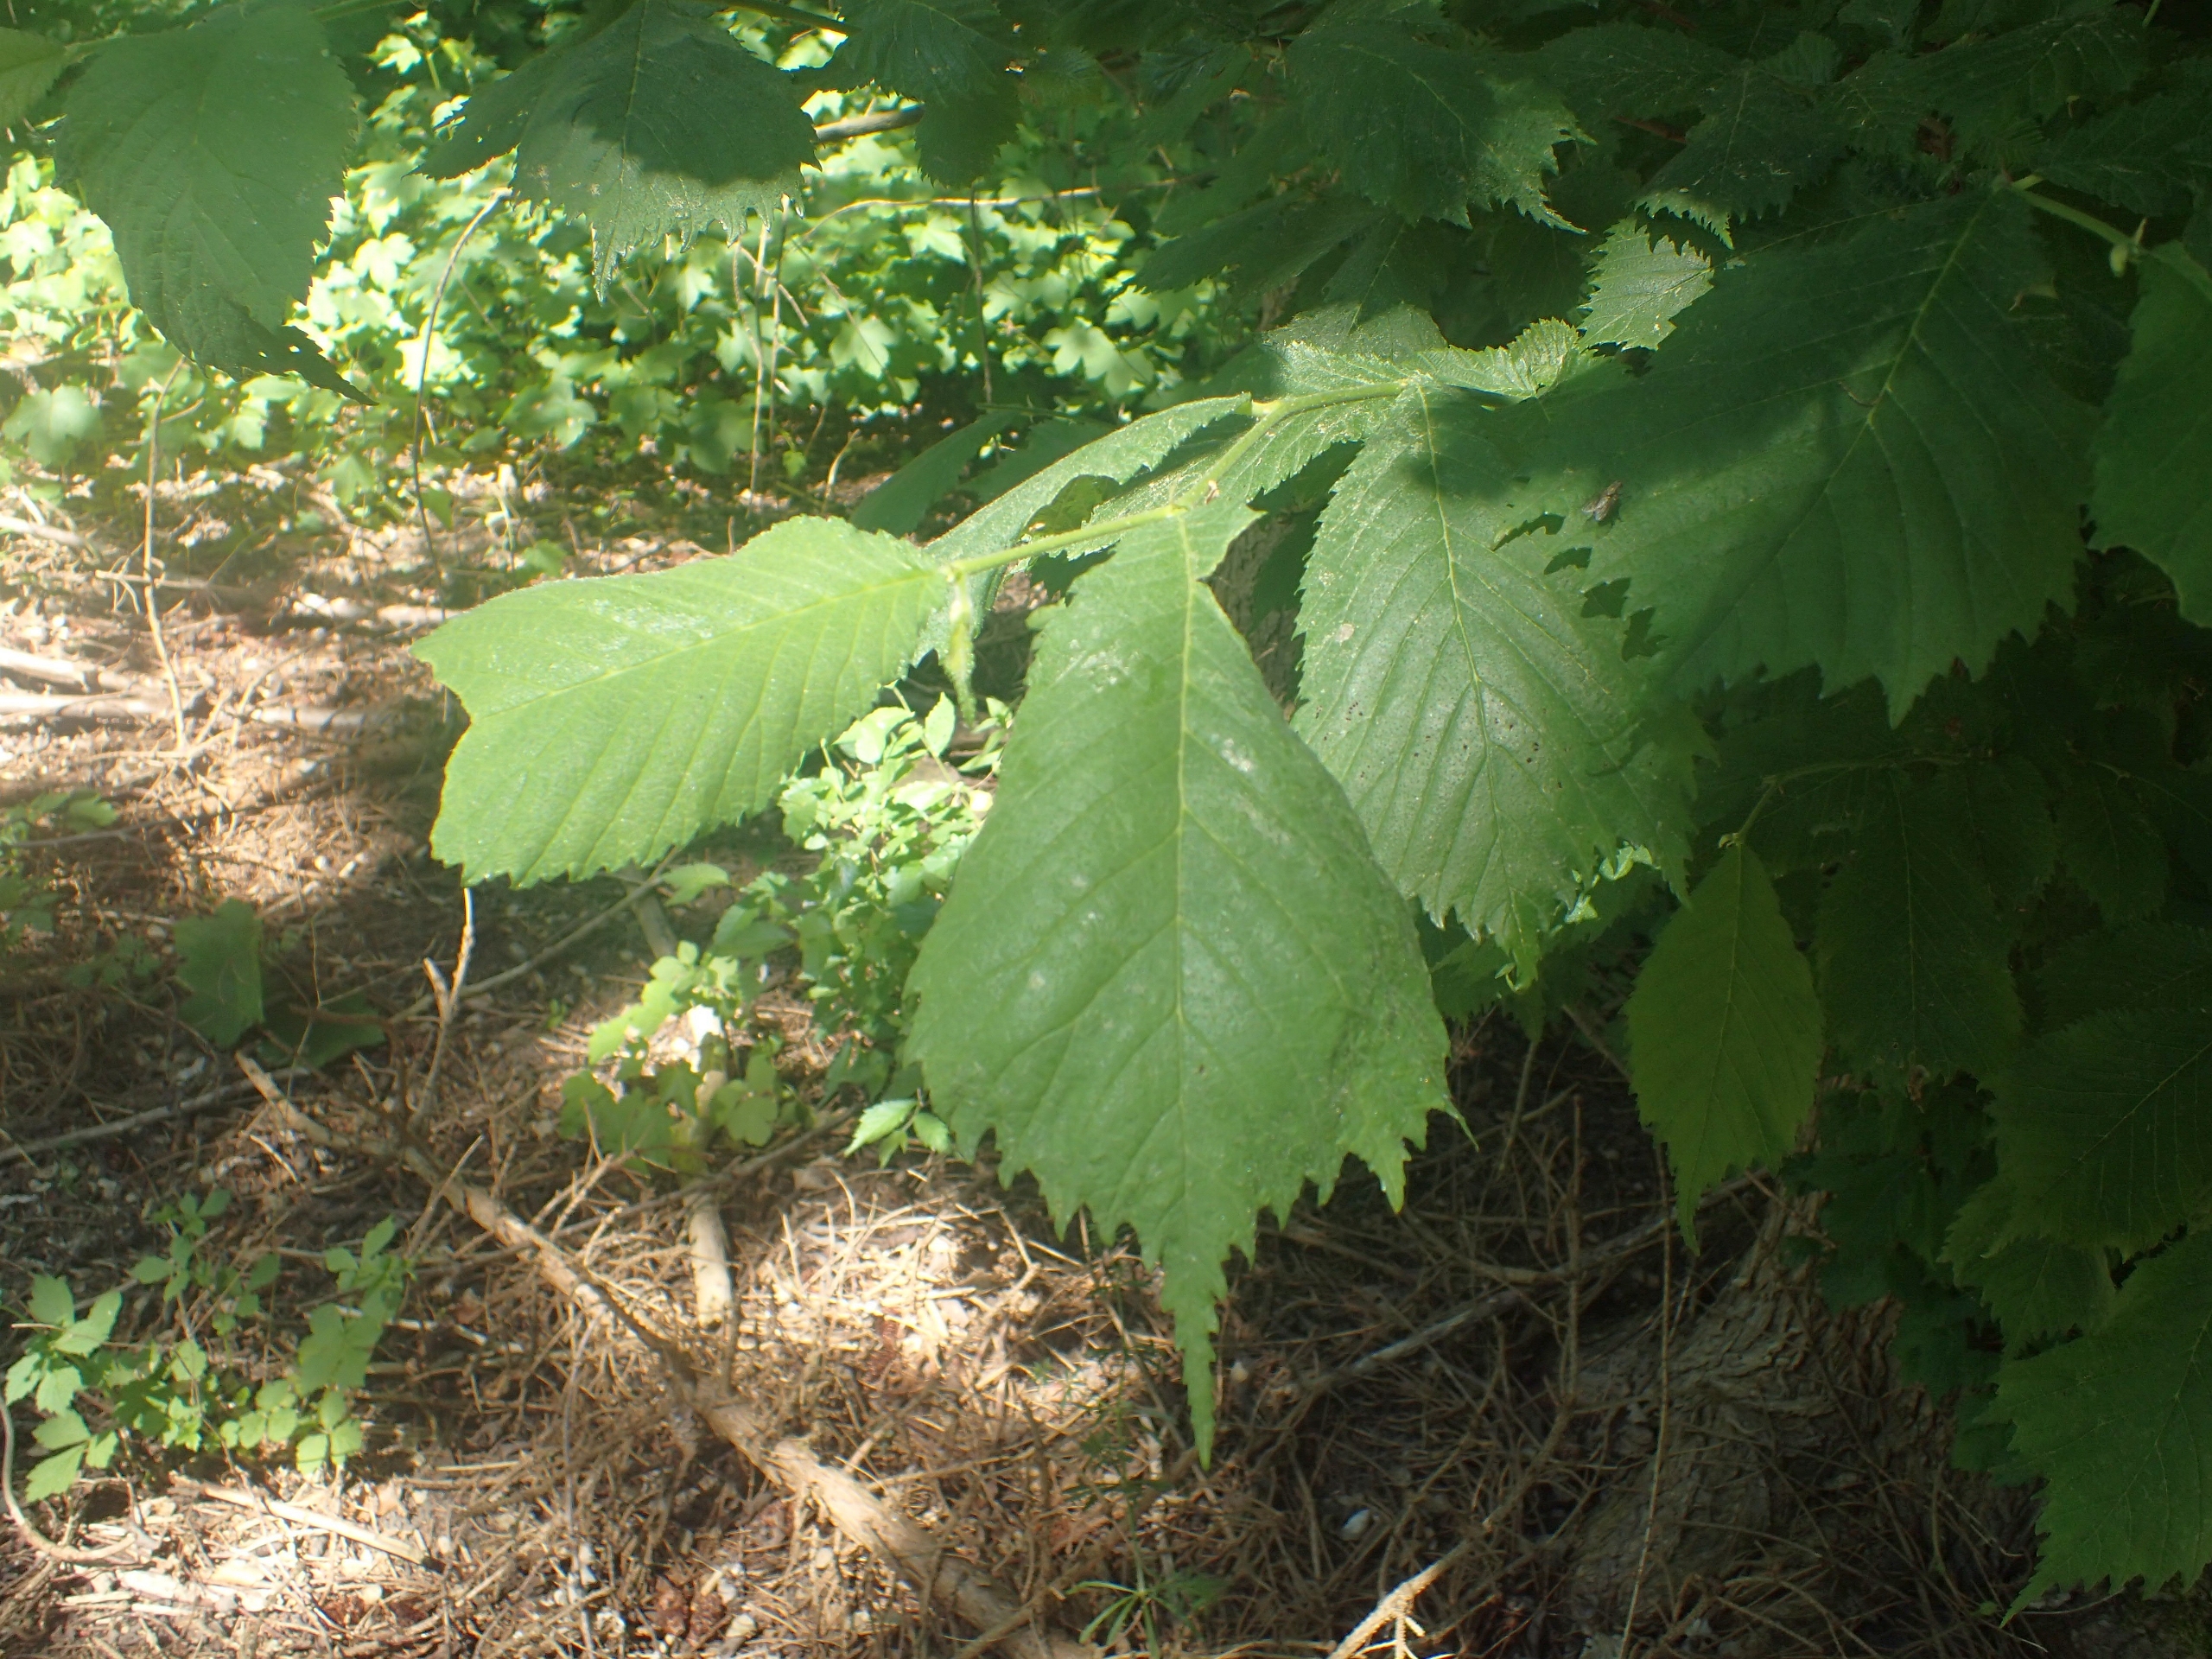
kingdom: Plantae
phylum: Tracheophyta
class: Magnoliopsida
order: Rosales
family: Ulmaceae
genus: Ulmus
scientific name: Ulmus glabra
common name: Skov-elm/storbladet elm
